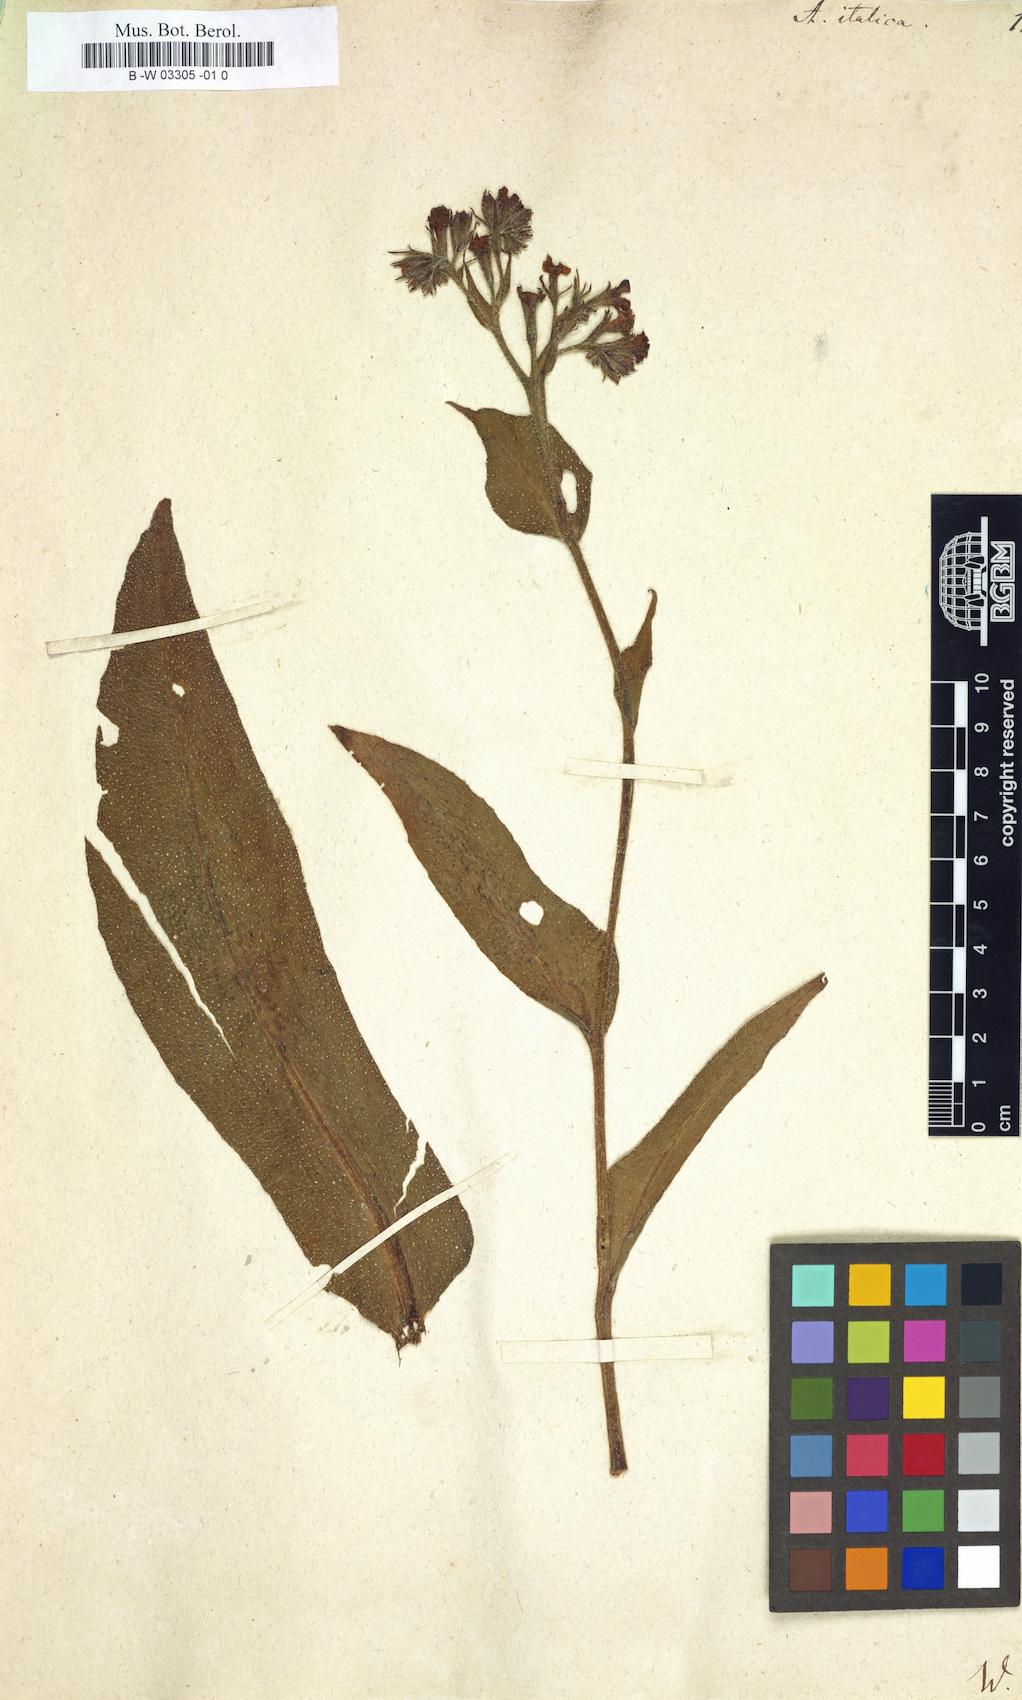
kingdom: Plantae
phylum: Tracheophyta
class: Magnoliopsida
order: Boraginales
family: Boraginaceae
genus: Anchusa
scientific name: Anchusa azurea
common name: Garden anchusa
